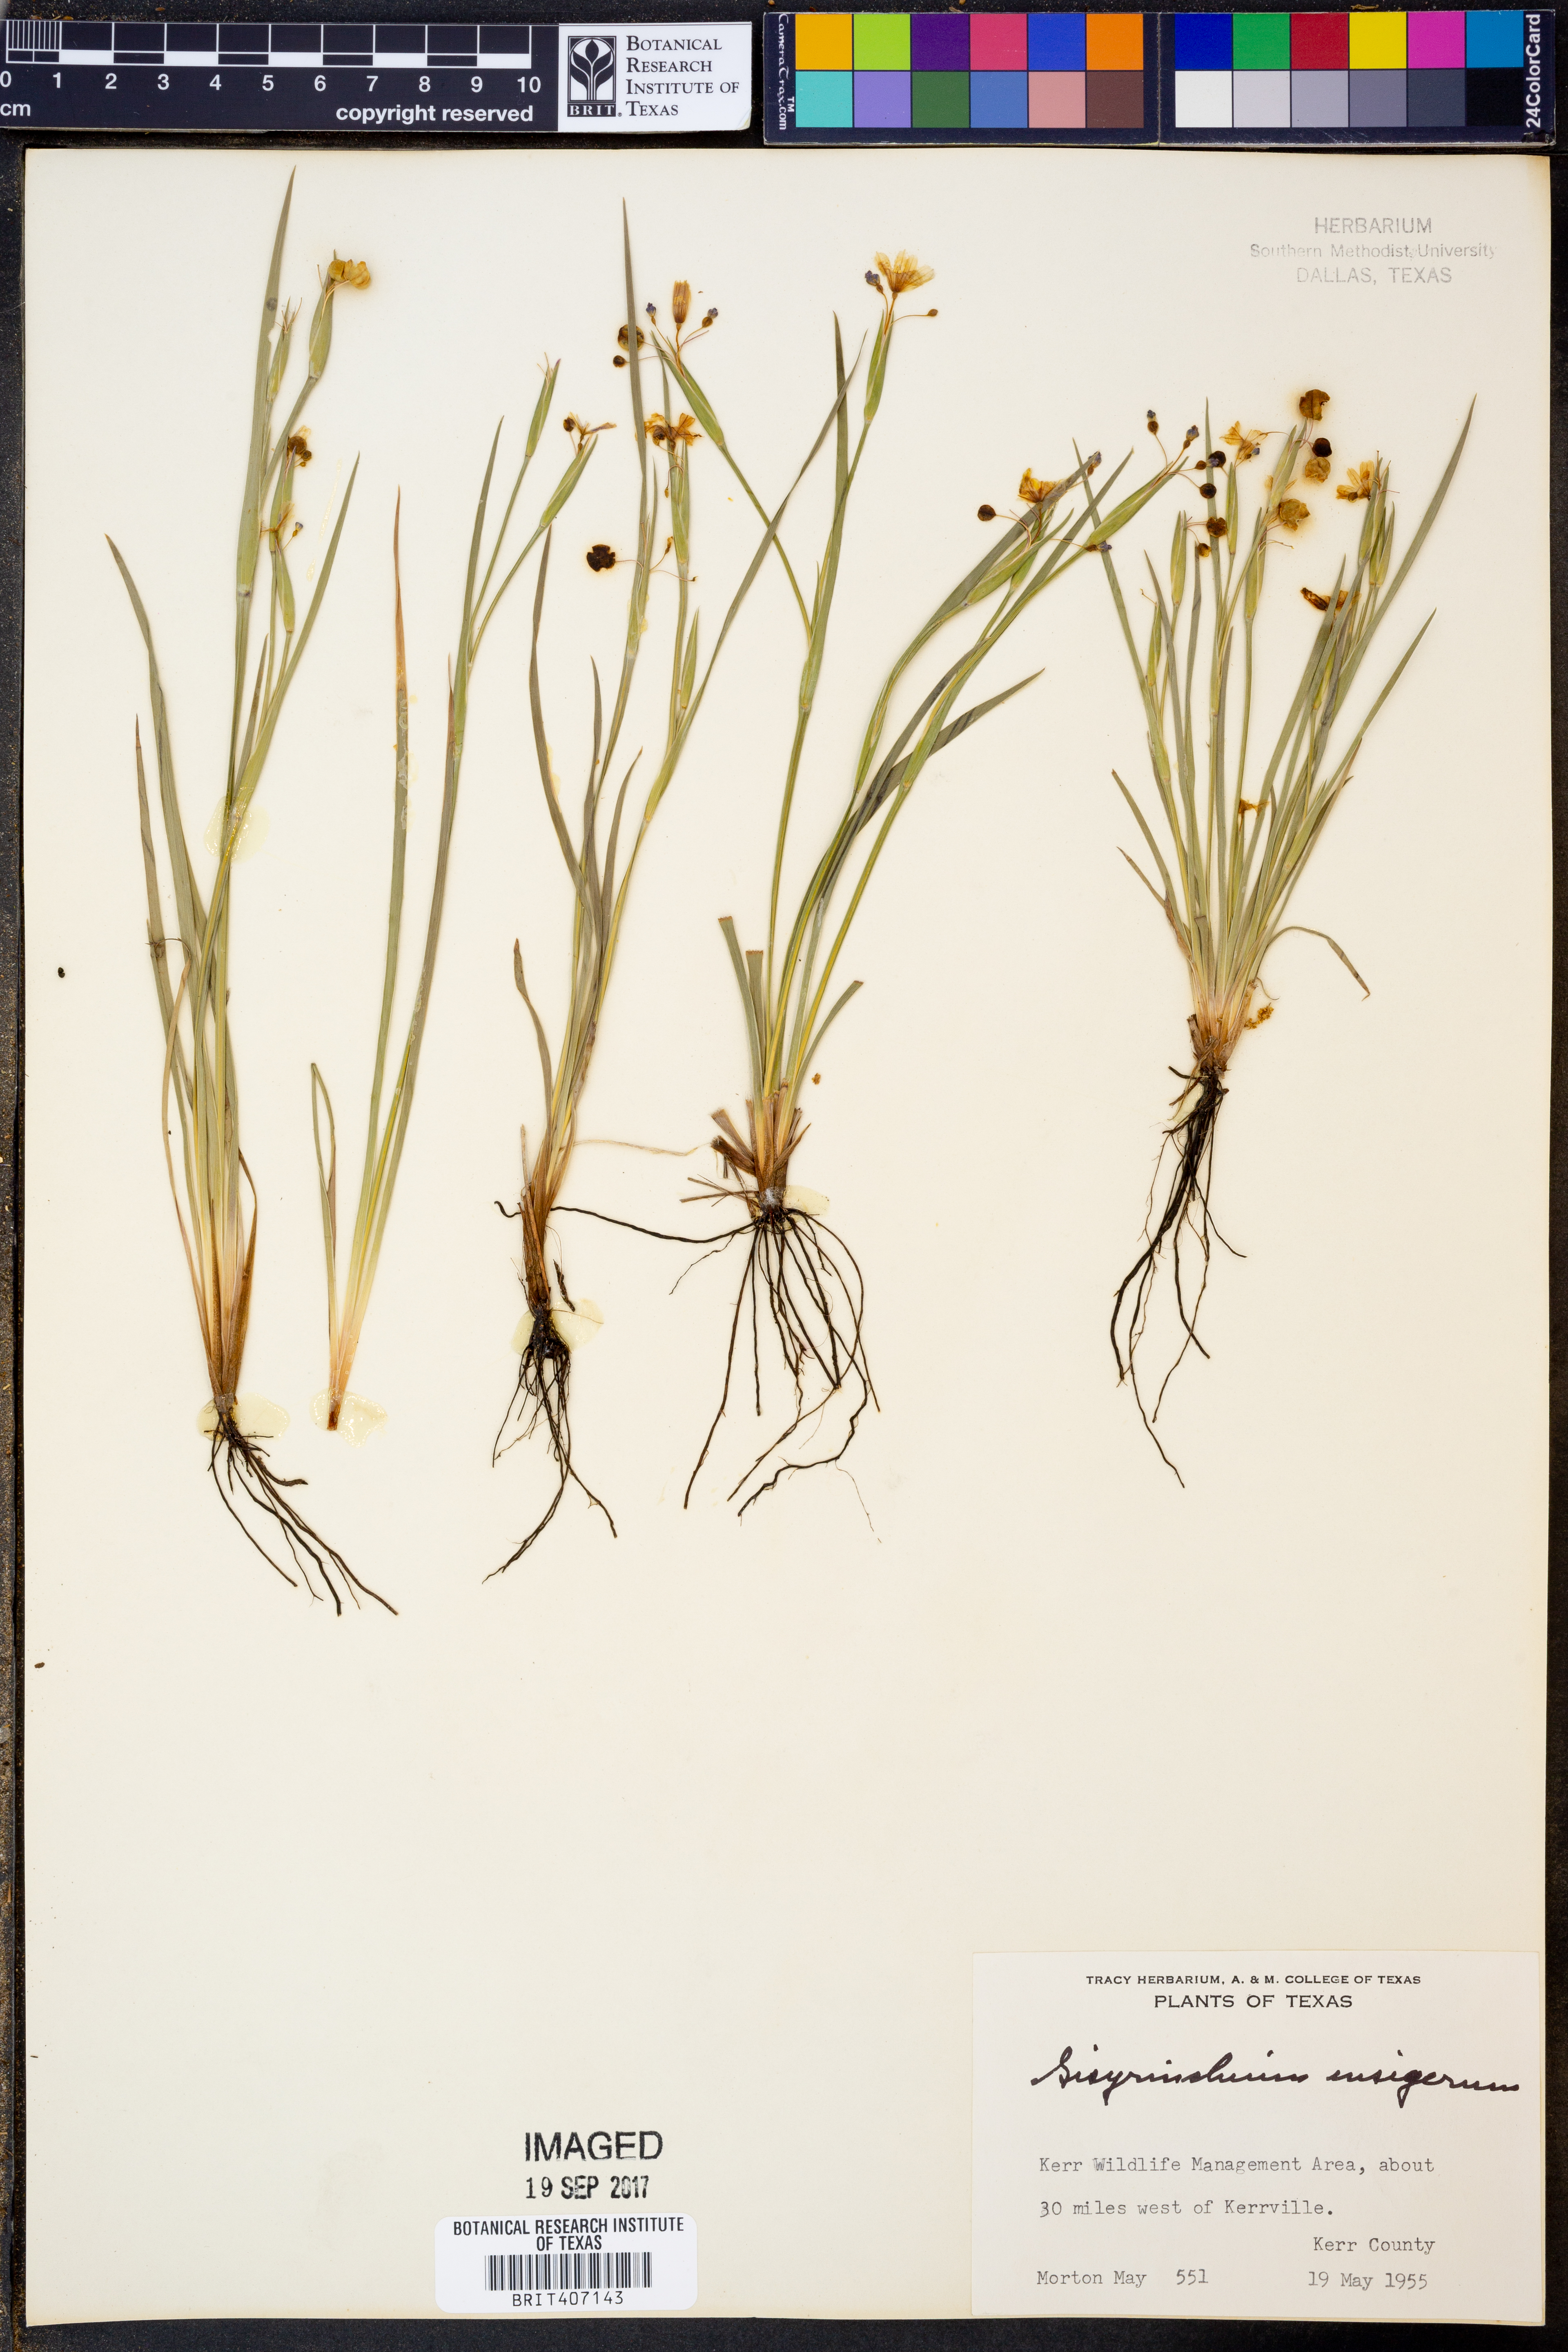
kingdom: Plantae
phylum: Tracheophyta
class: Liliopsida
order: Asparagales
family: Iridaceae
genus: Sisyrinchium
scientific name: Sisyrinchium ensigerum
